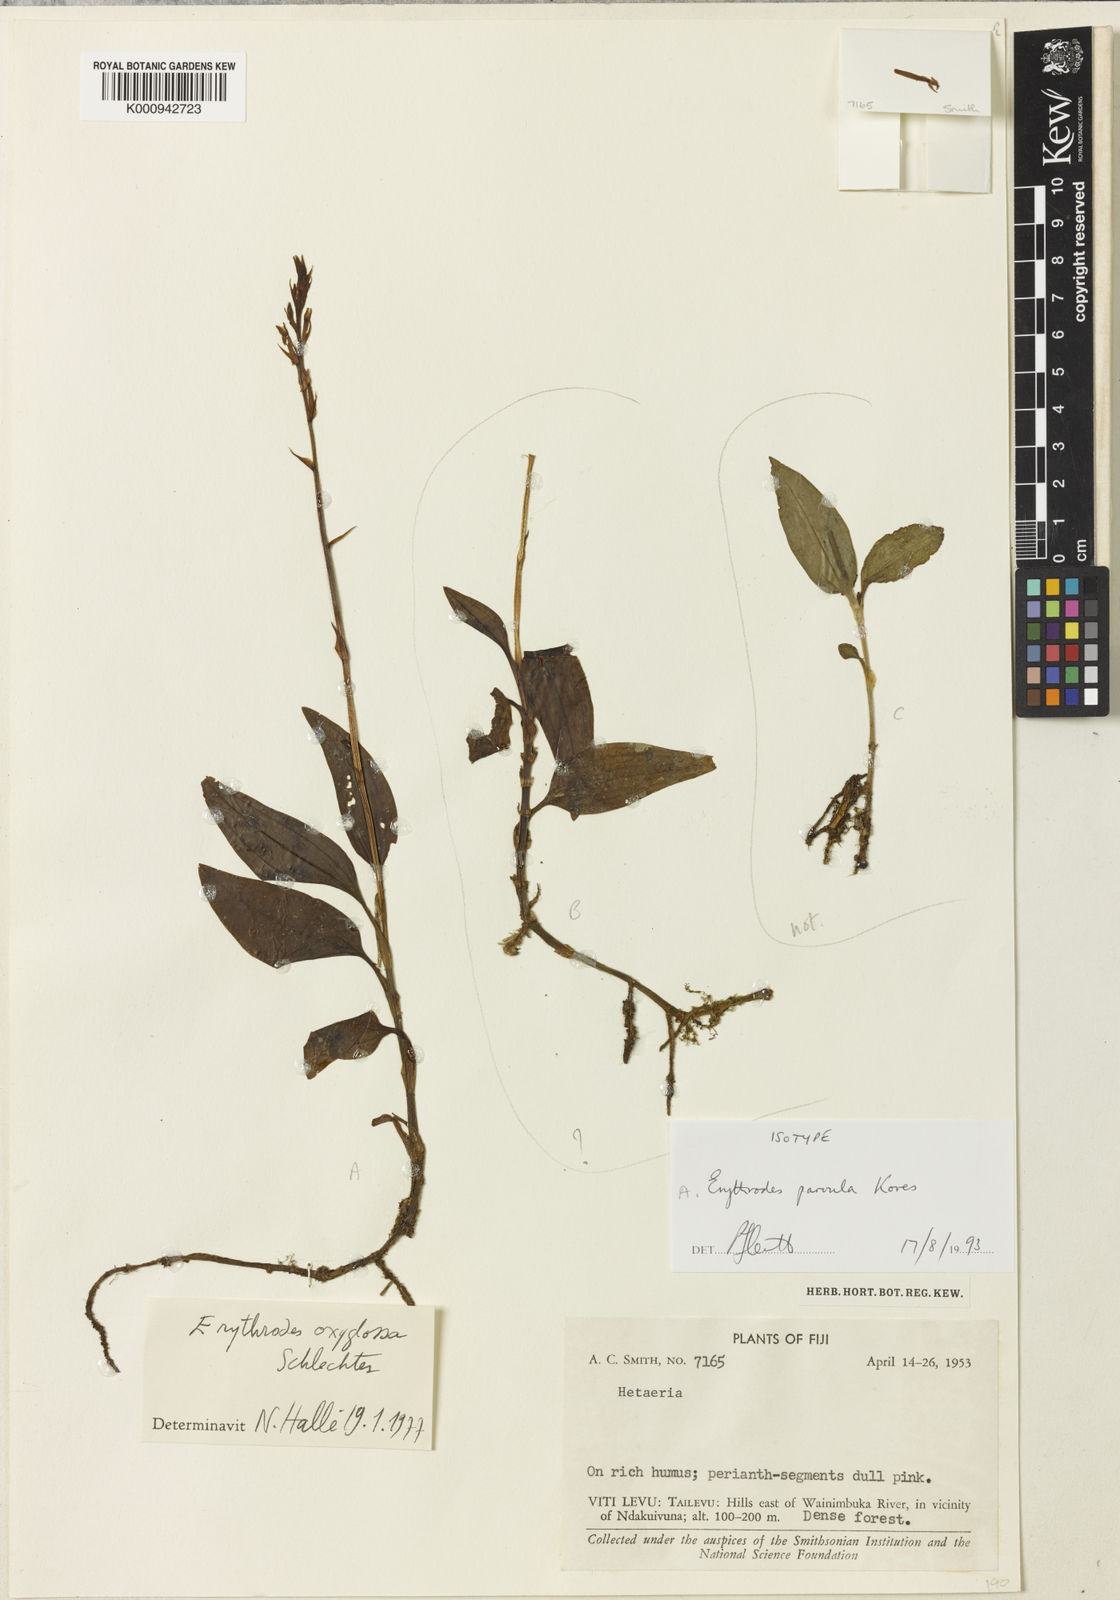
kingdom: Plantae
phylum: Tracheophyta
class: Liliopsida
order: Asparagales
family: Orchidaceae
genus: Erythrodes
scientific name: Erythrodes parvula
